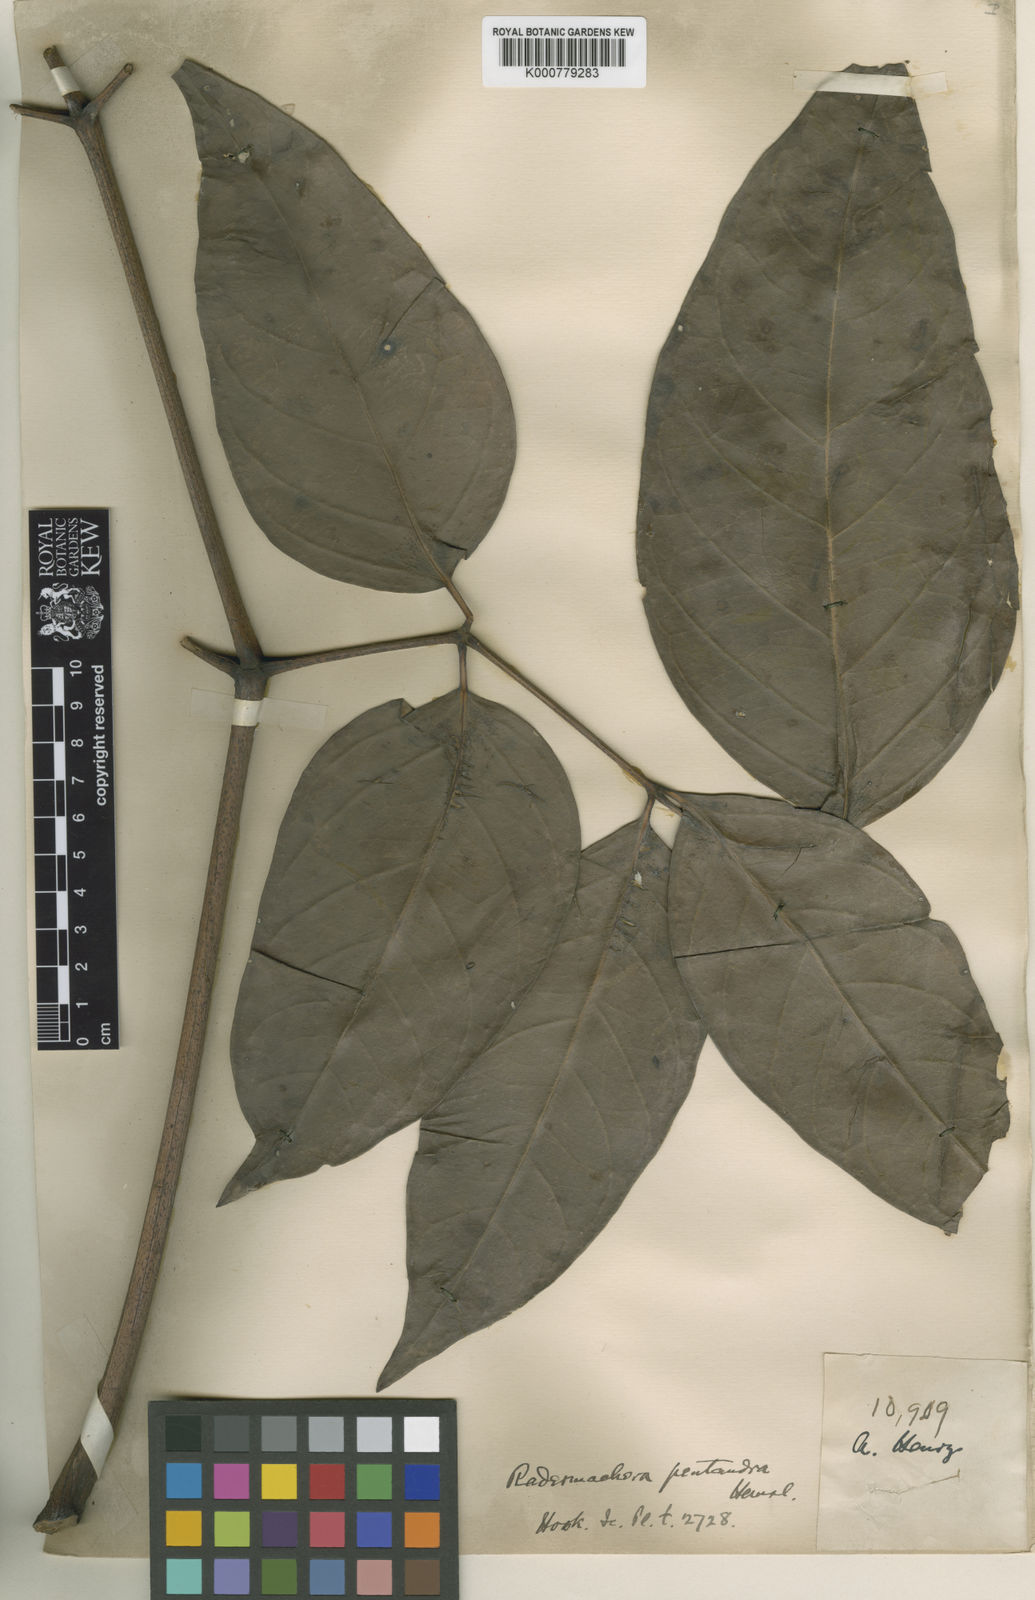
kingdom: Plantae
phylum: Tracheophyta
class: Magnoliopsida
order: Lamiales
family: Bignoniaceae
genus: Radermachera
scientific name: Radermachera pentandra
